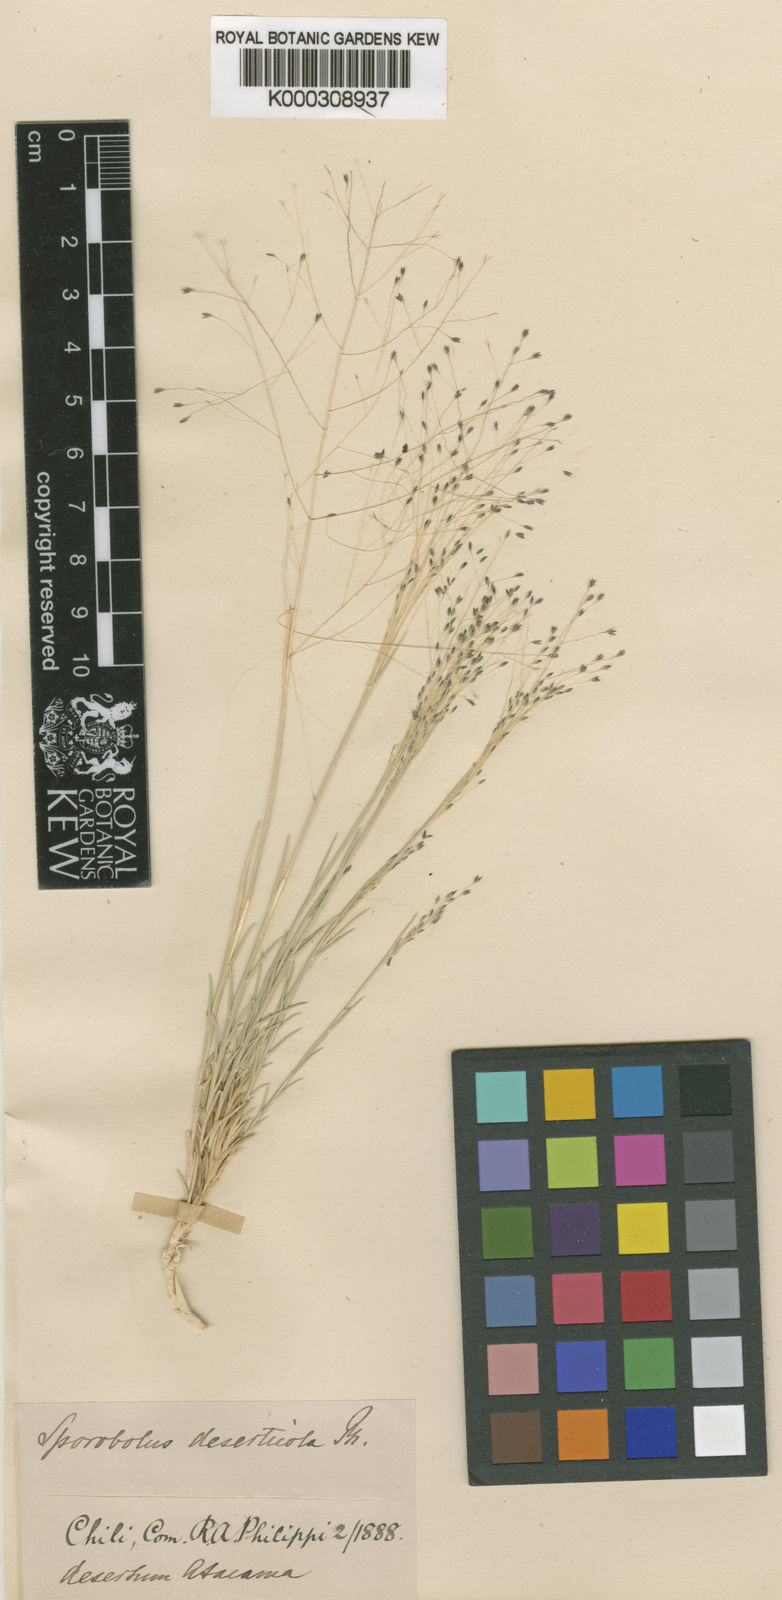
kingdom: Plantae
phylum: Tracheophyta
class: Liliopsida
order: Poales
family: Poaceae
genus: Muhlenbergia
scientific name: Muhlenbergia asperifolia
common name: Alkali muhly
